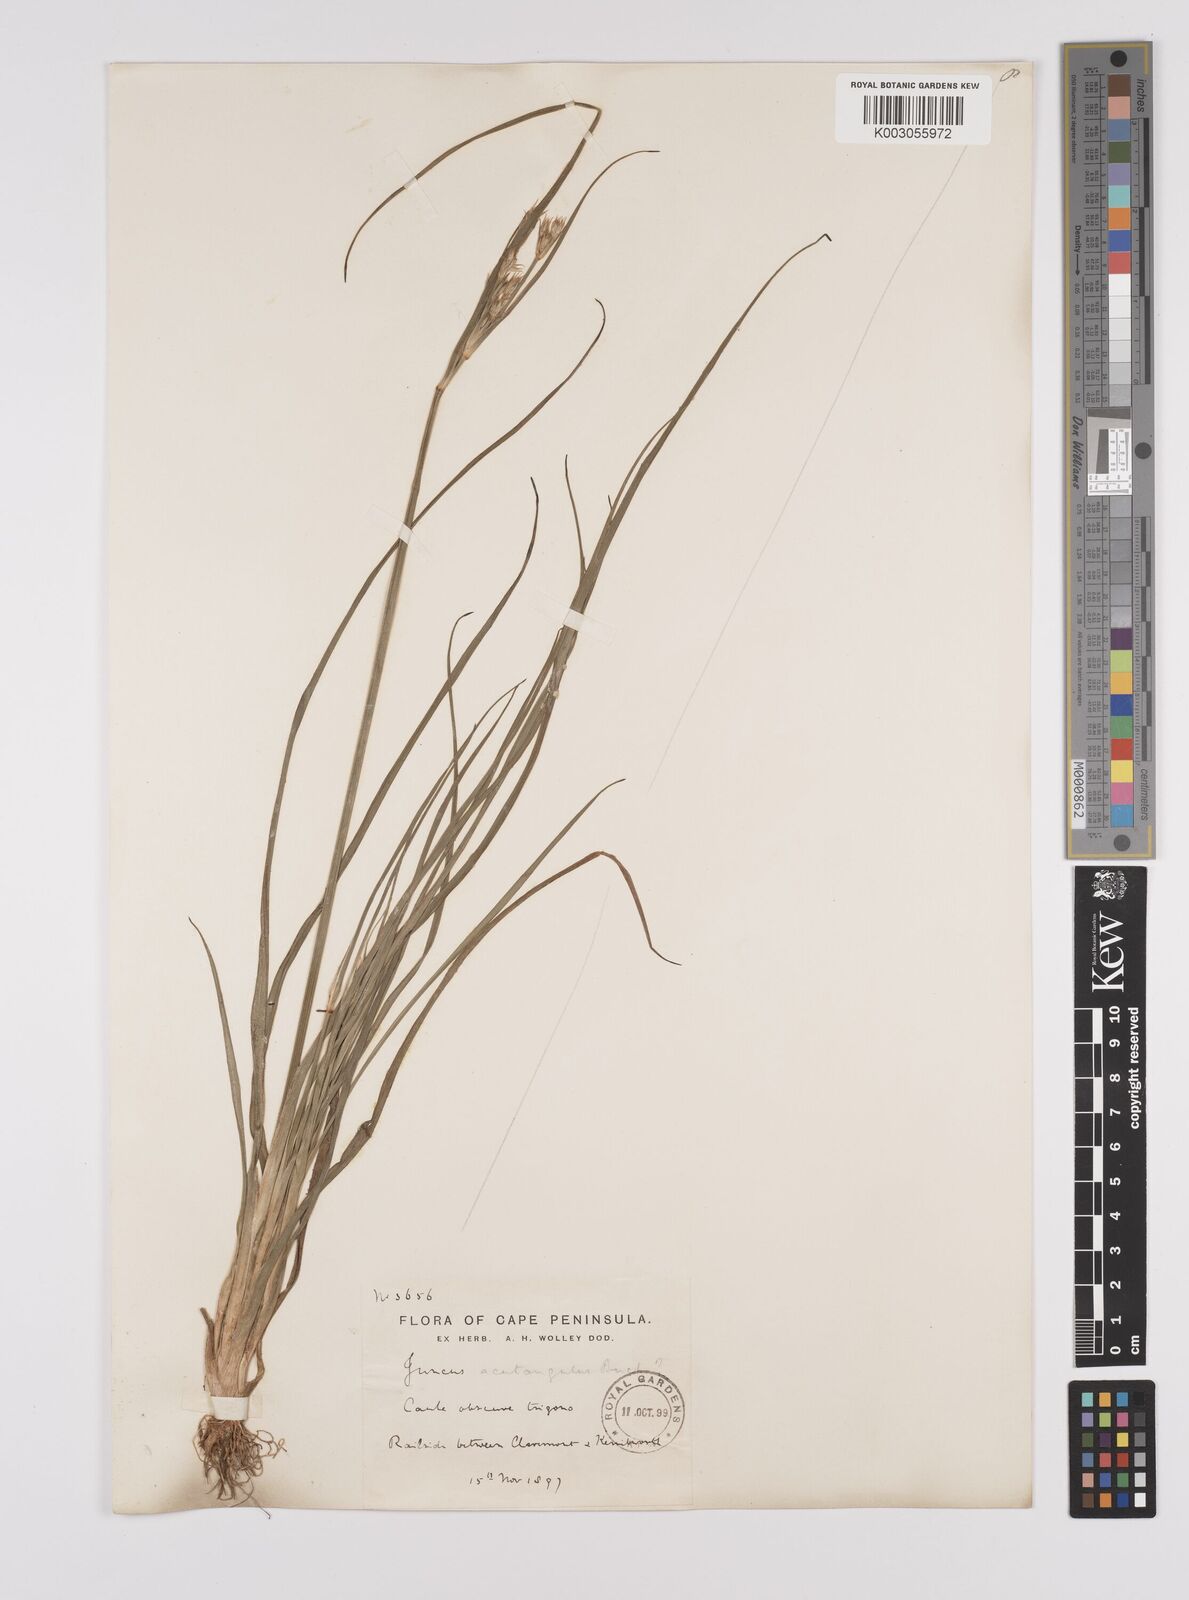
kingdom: Plantae
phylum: Tracheophyta
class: Liliopsida
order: Poales
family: Juncaceae
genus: Juncus
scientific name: Juncus capensis
